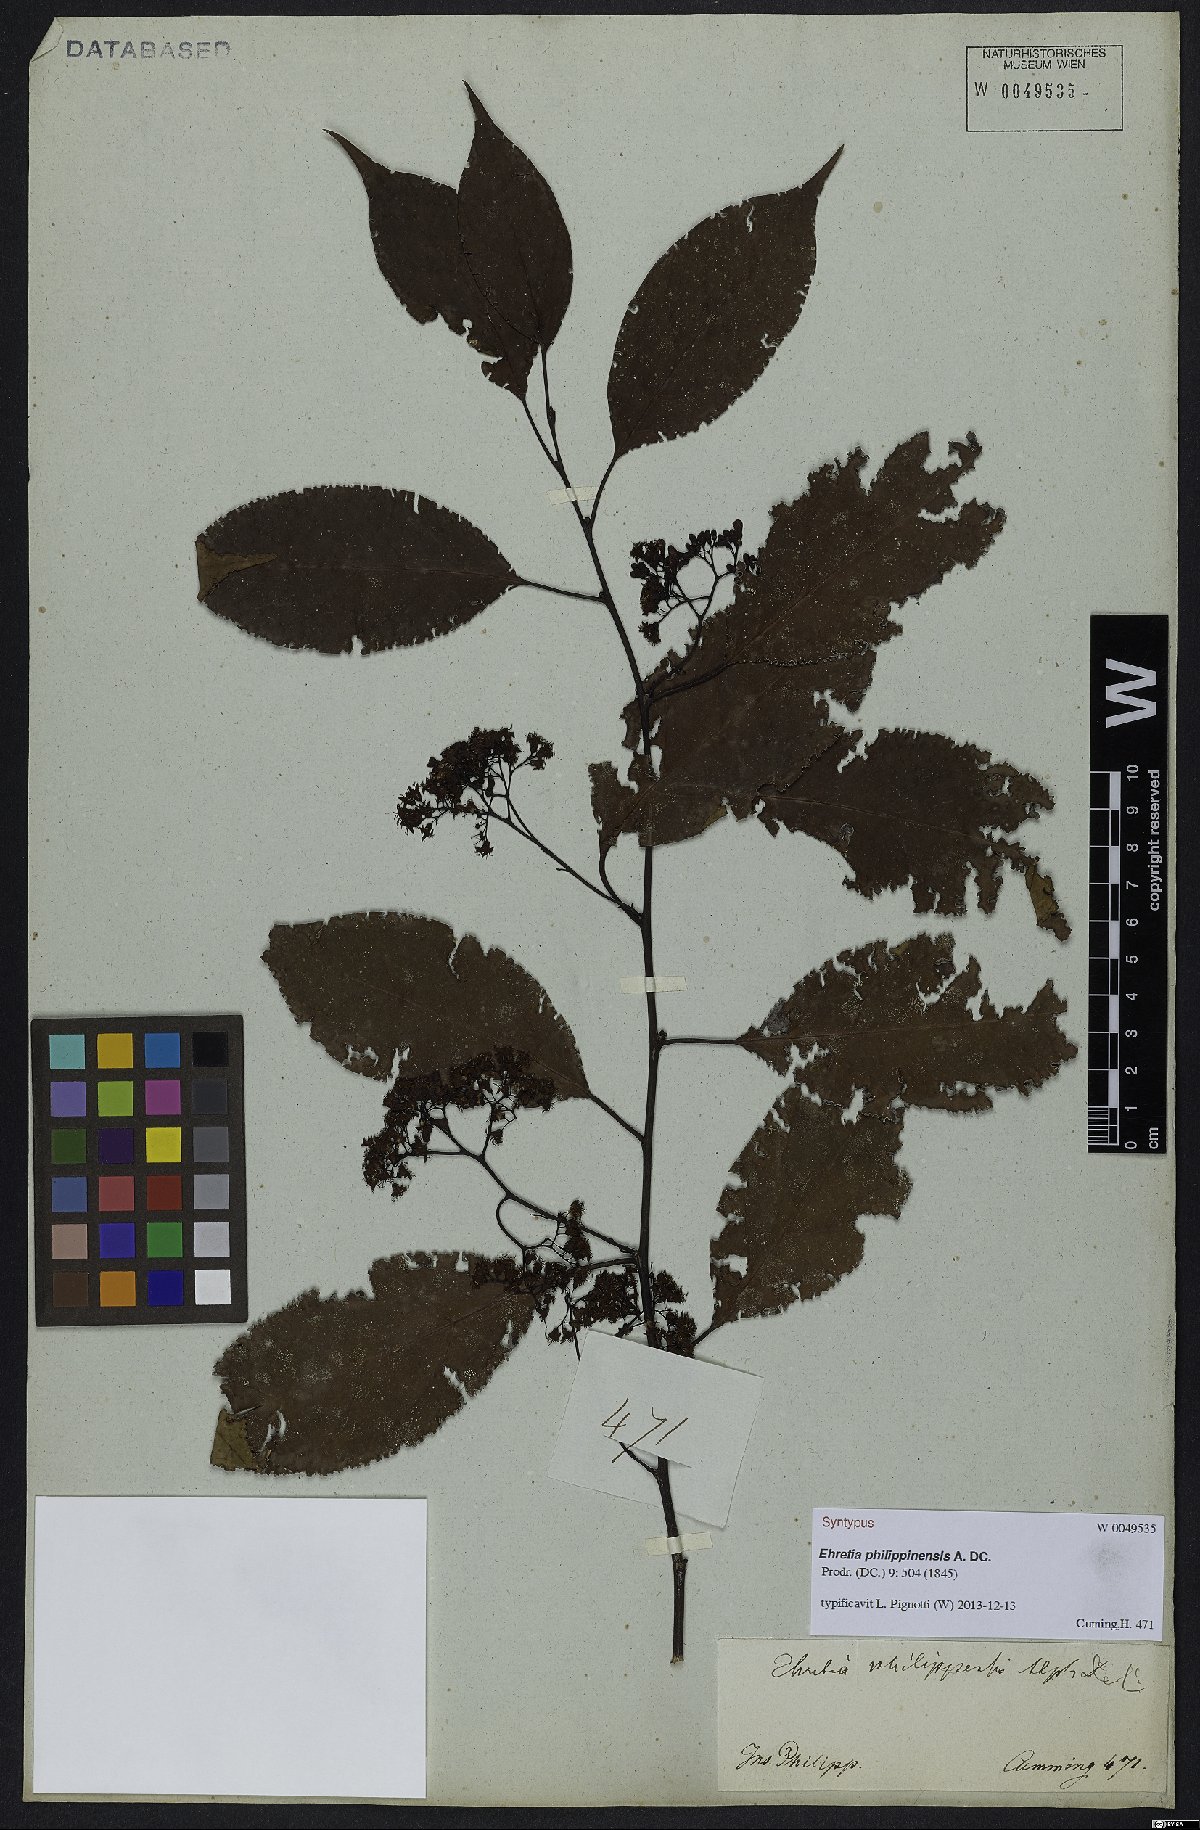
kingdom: Plantae
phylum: Tracheophyta
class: Magnoliopsida
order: Boraginales
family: Ehretiaceae
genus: Ehretia
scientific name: Ehretia philippinensis
